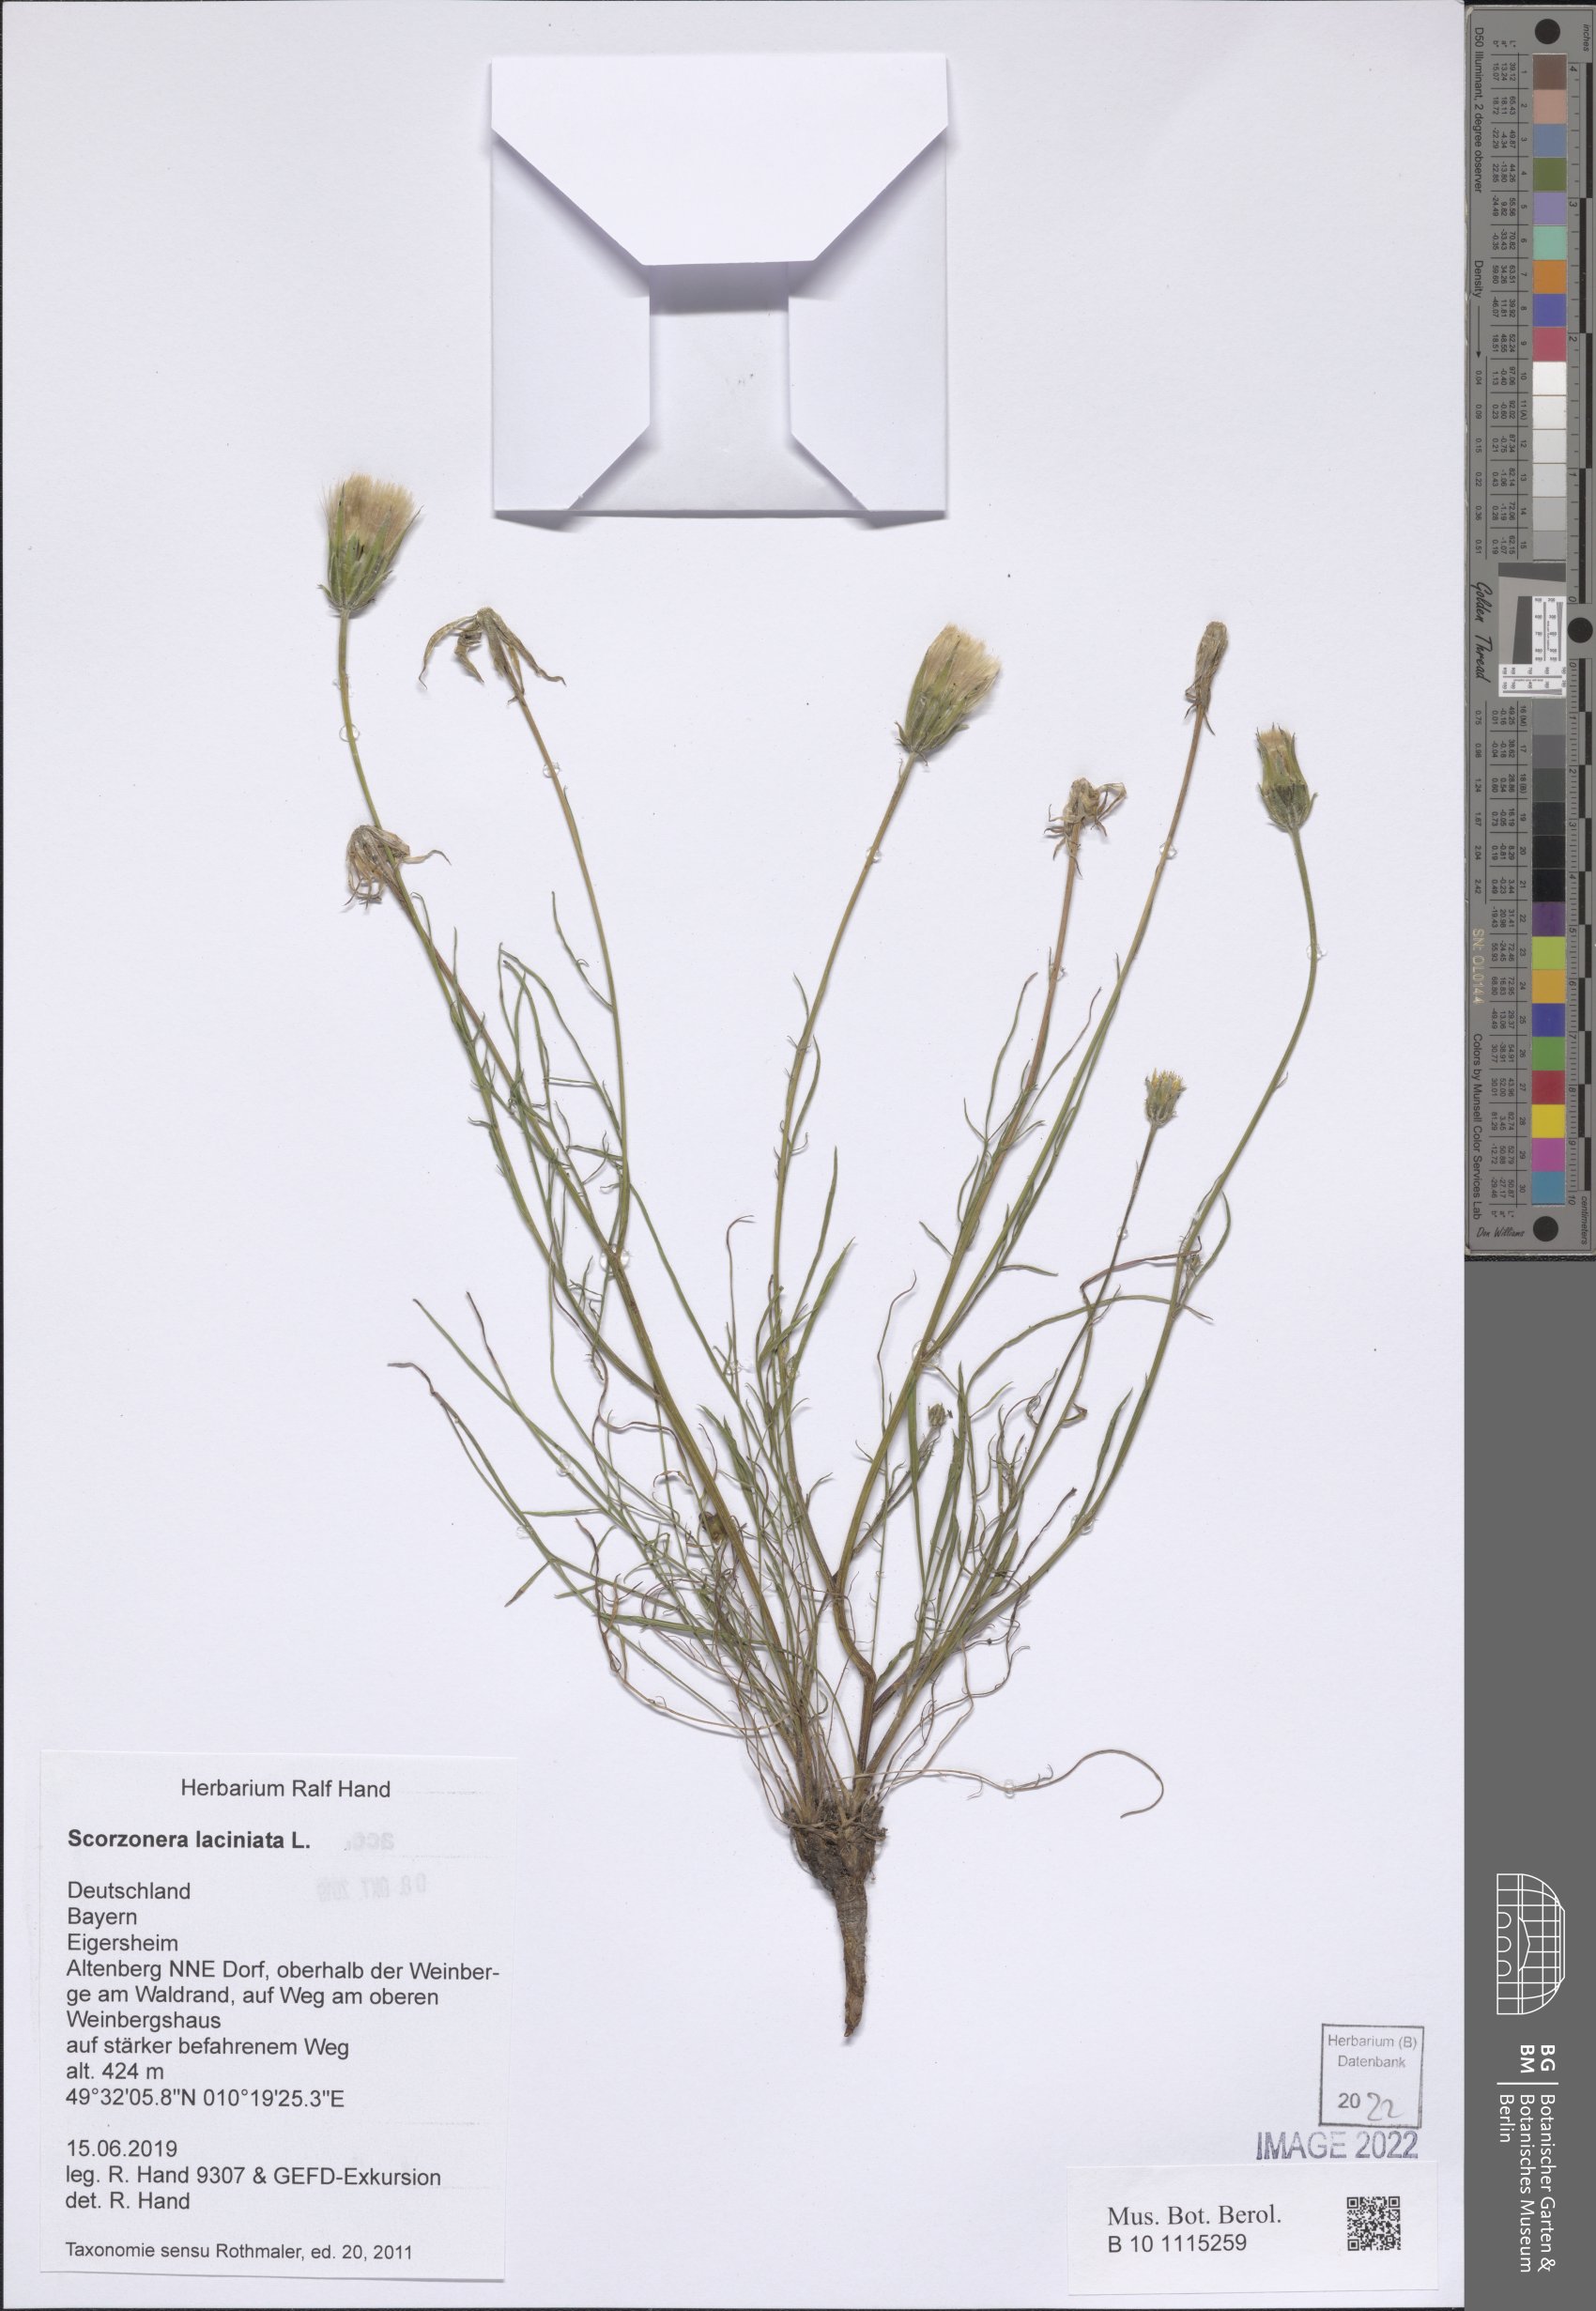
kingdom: Plantae
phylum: Tracheophyta
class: Magnoliopsida
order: Asterales
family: Asteraceae
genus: Scorzonera
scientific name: Scorzonera laciniata
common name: Cutleaf vipergrass
